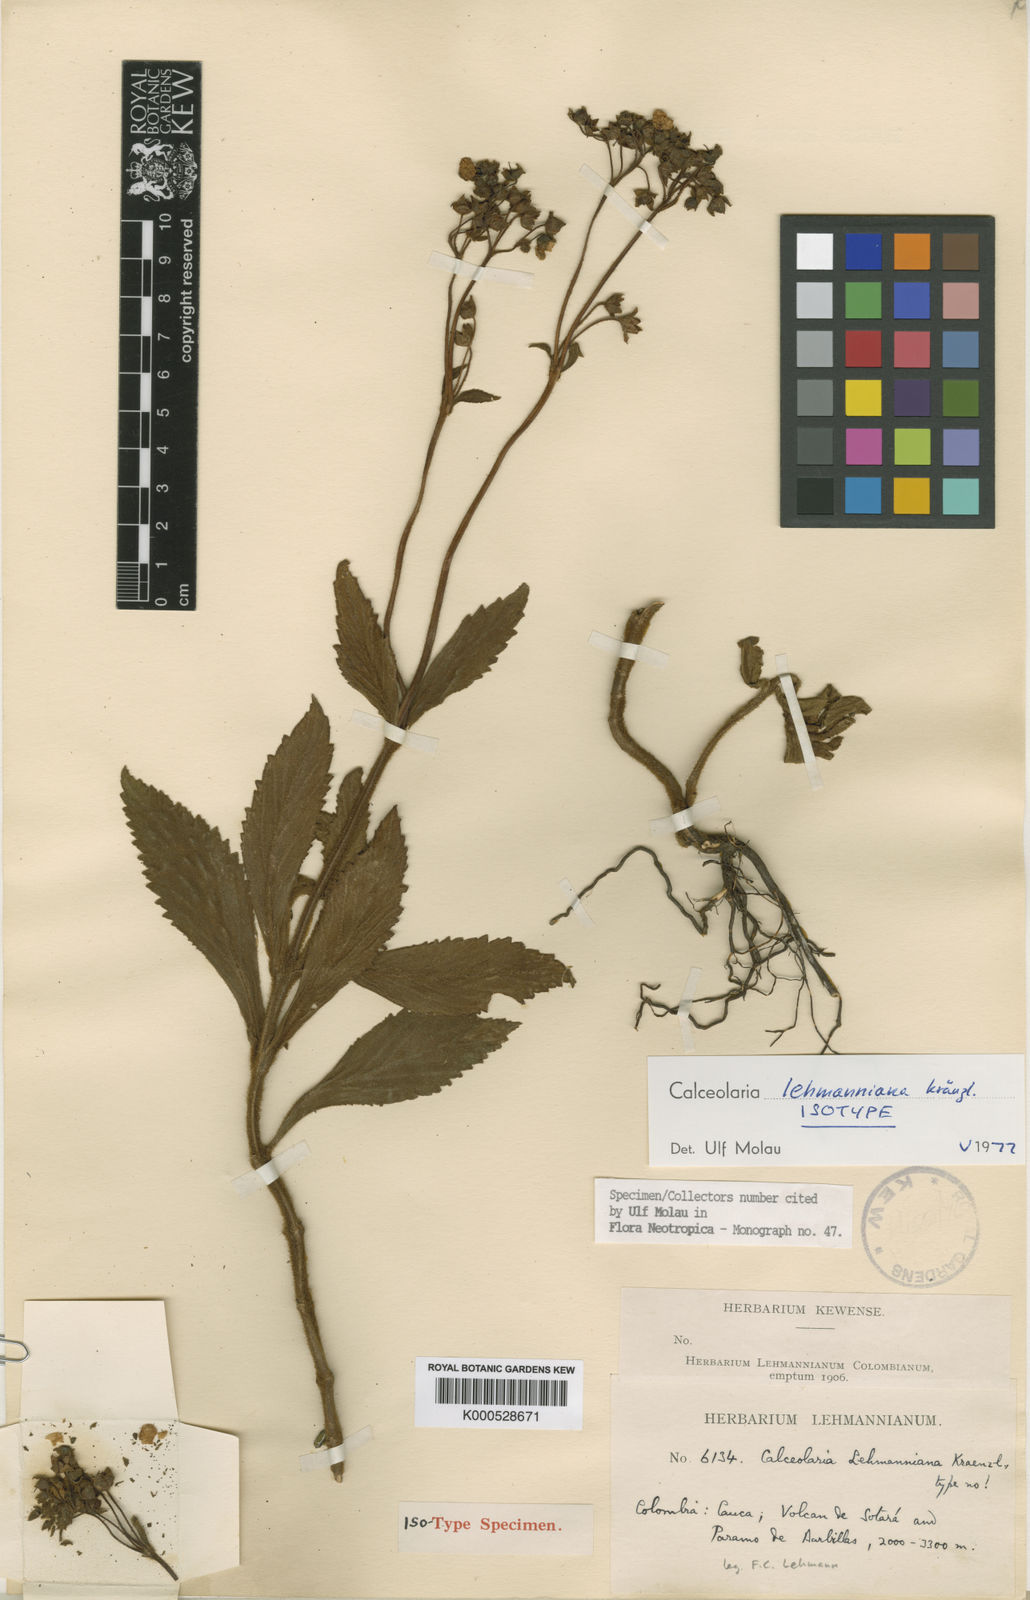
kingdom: Plantae
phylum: Tracheophyta
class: Magnoliopsida
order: Lamiales
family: Calceolariaceae
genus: Calceolaria
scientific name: Calceolaria lehmanniana
